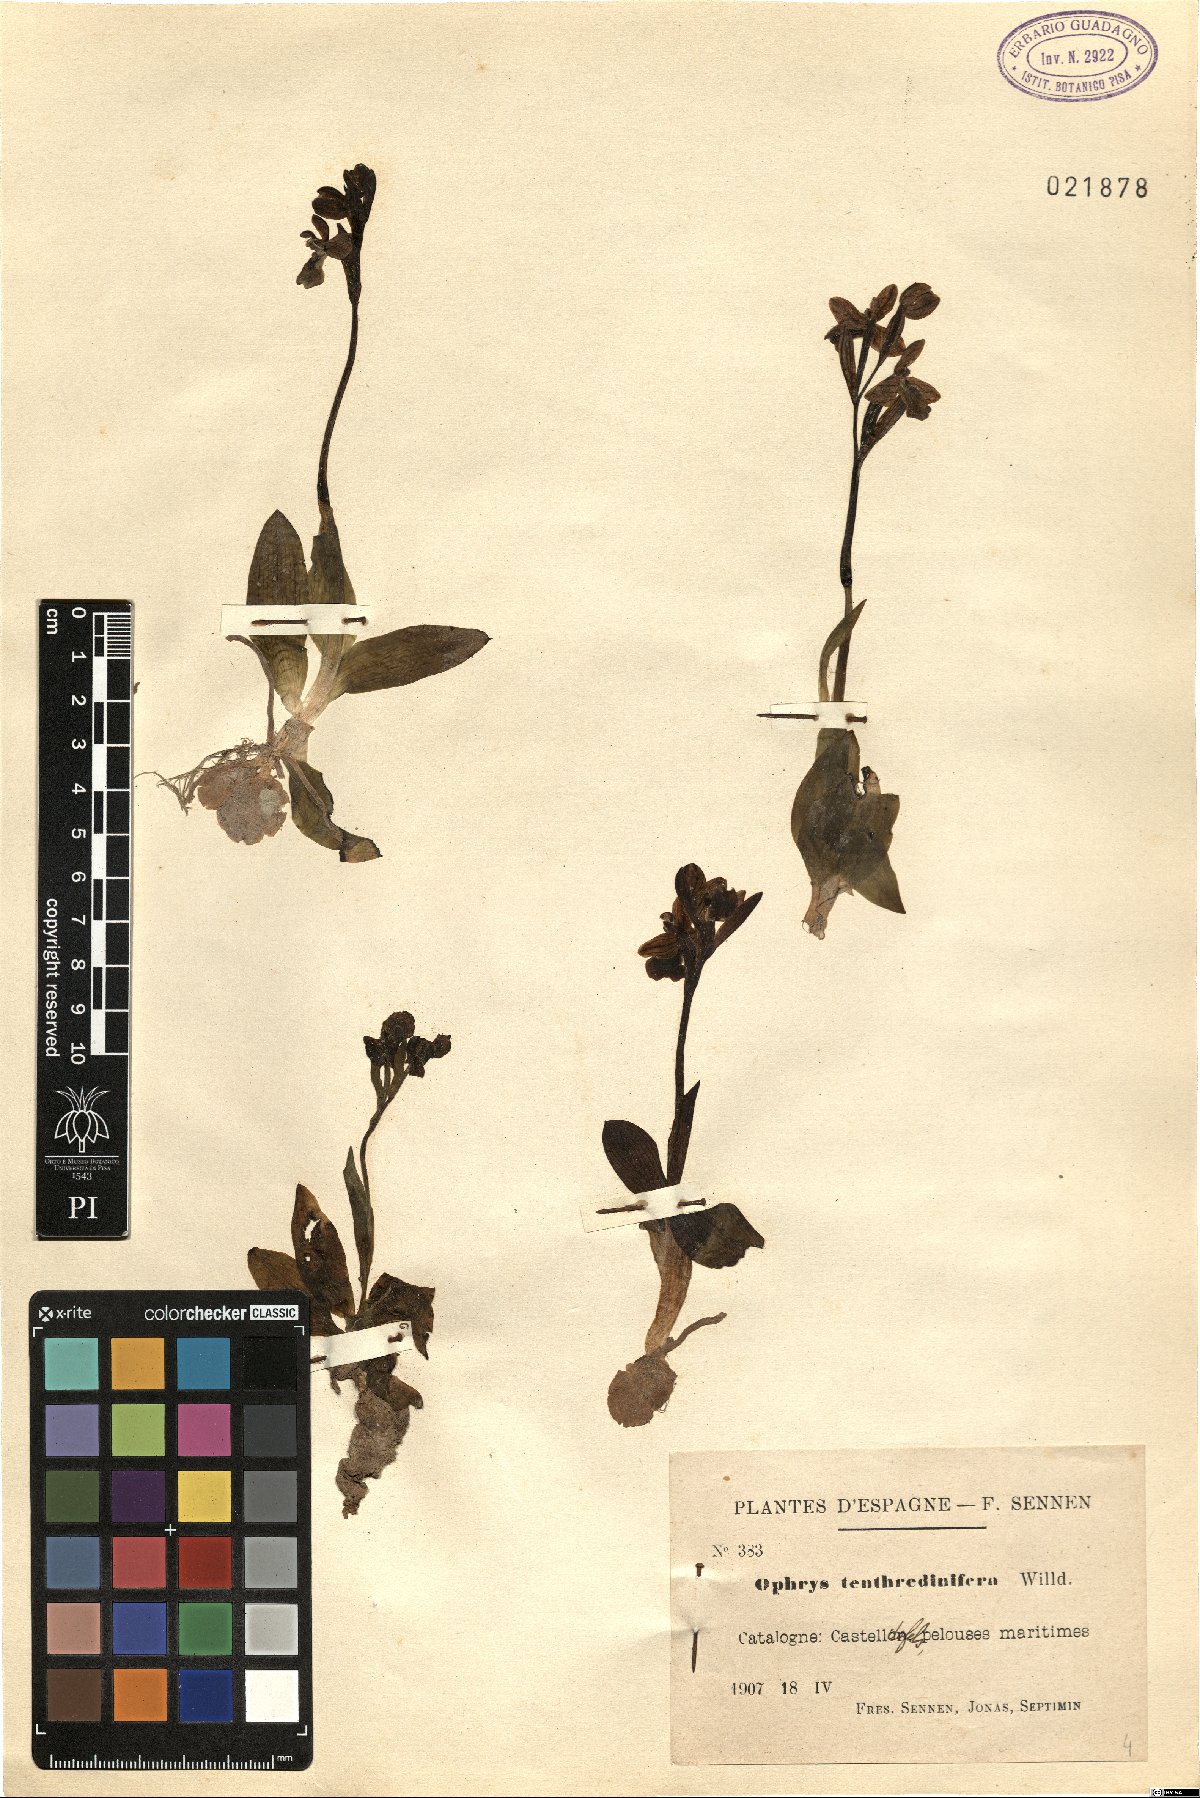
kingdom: Plantae
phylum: Tracheophyta
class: Liliopsida
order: Asparagales
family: Orchidaceae
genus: Ophrys
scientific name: Ophrys tenthredinifera
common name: Sawfly orchid
